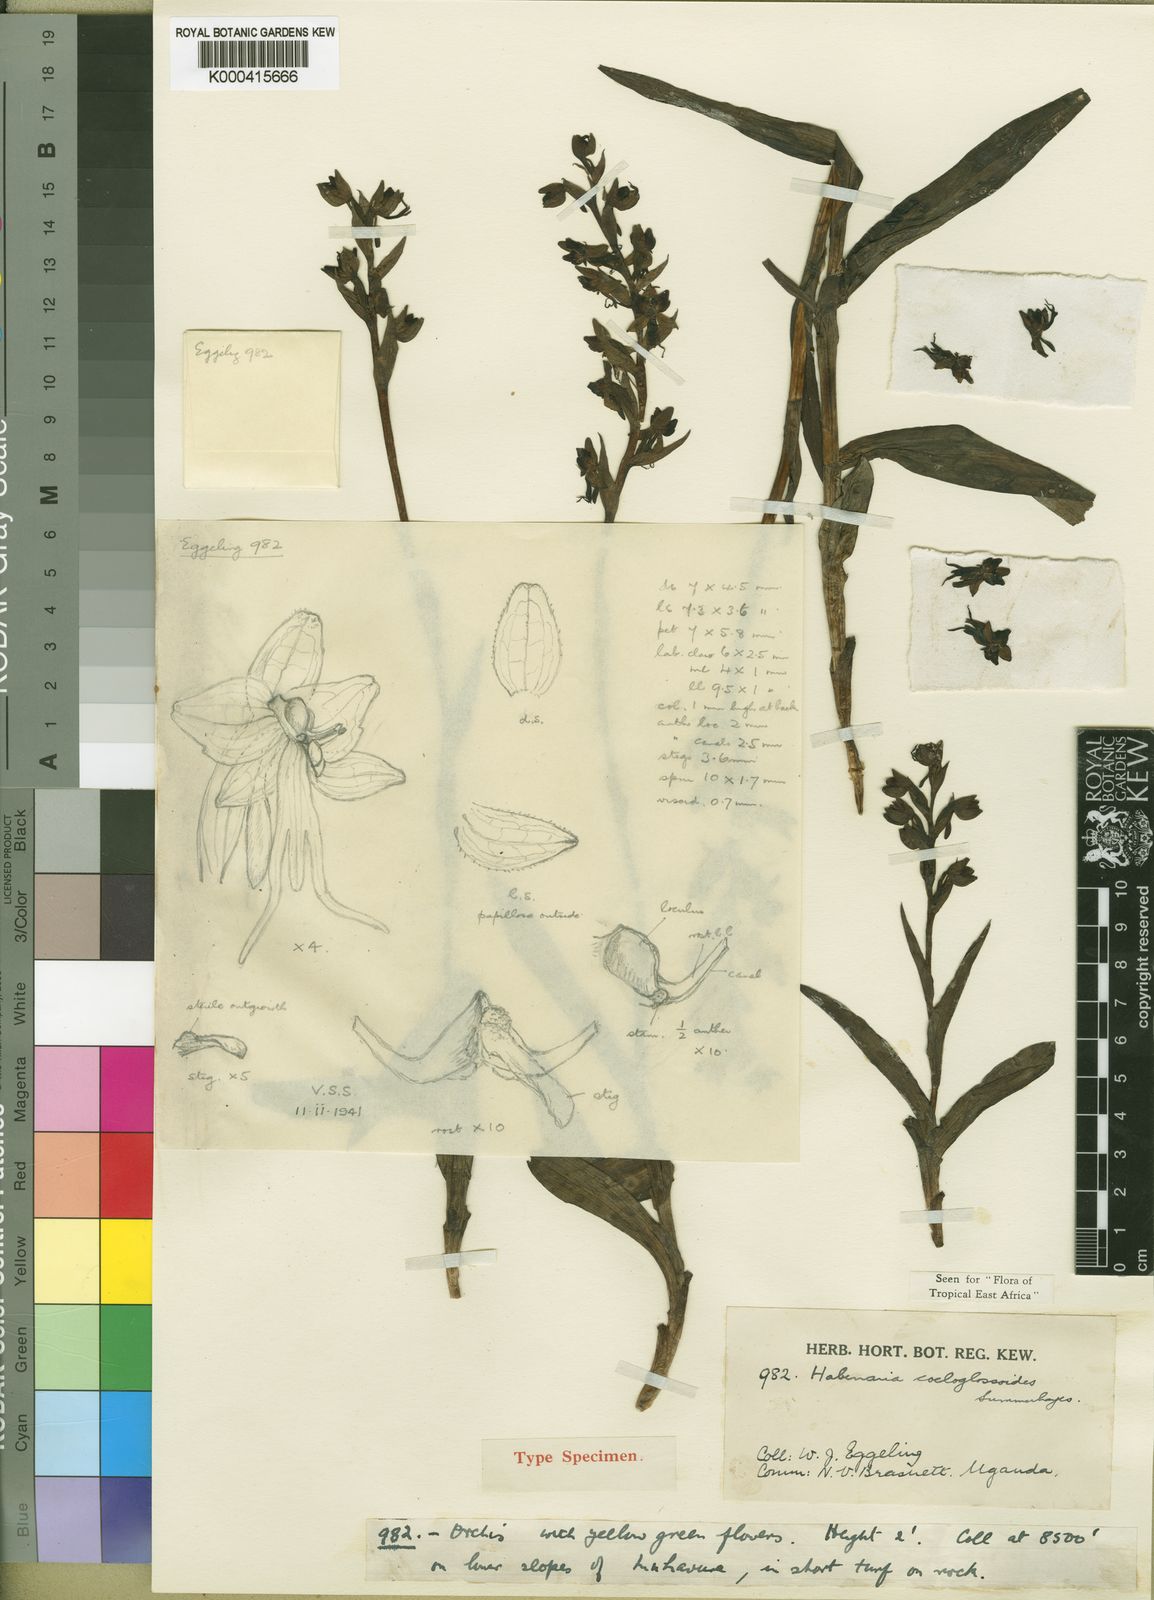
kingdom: Plantae
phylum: Tracheophyta
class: Liliopsida
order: Asparagales
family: Orchidaceae
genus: Habenaria
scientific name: Habenaria coeloglossoides
